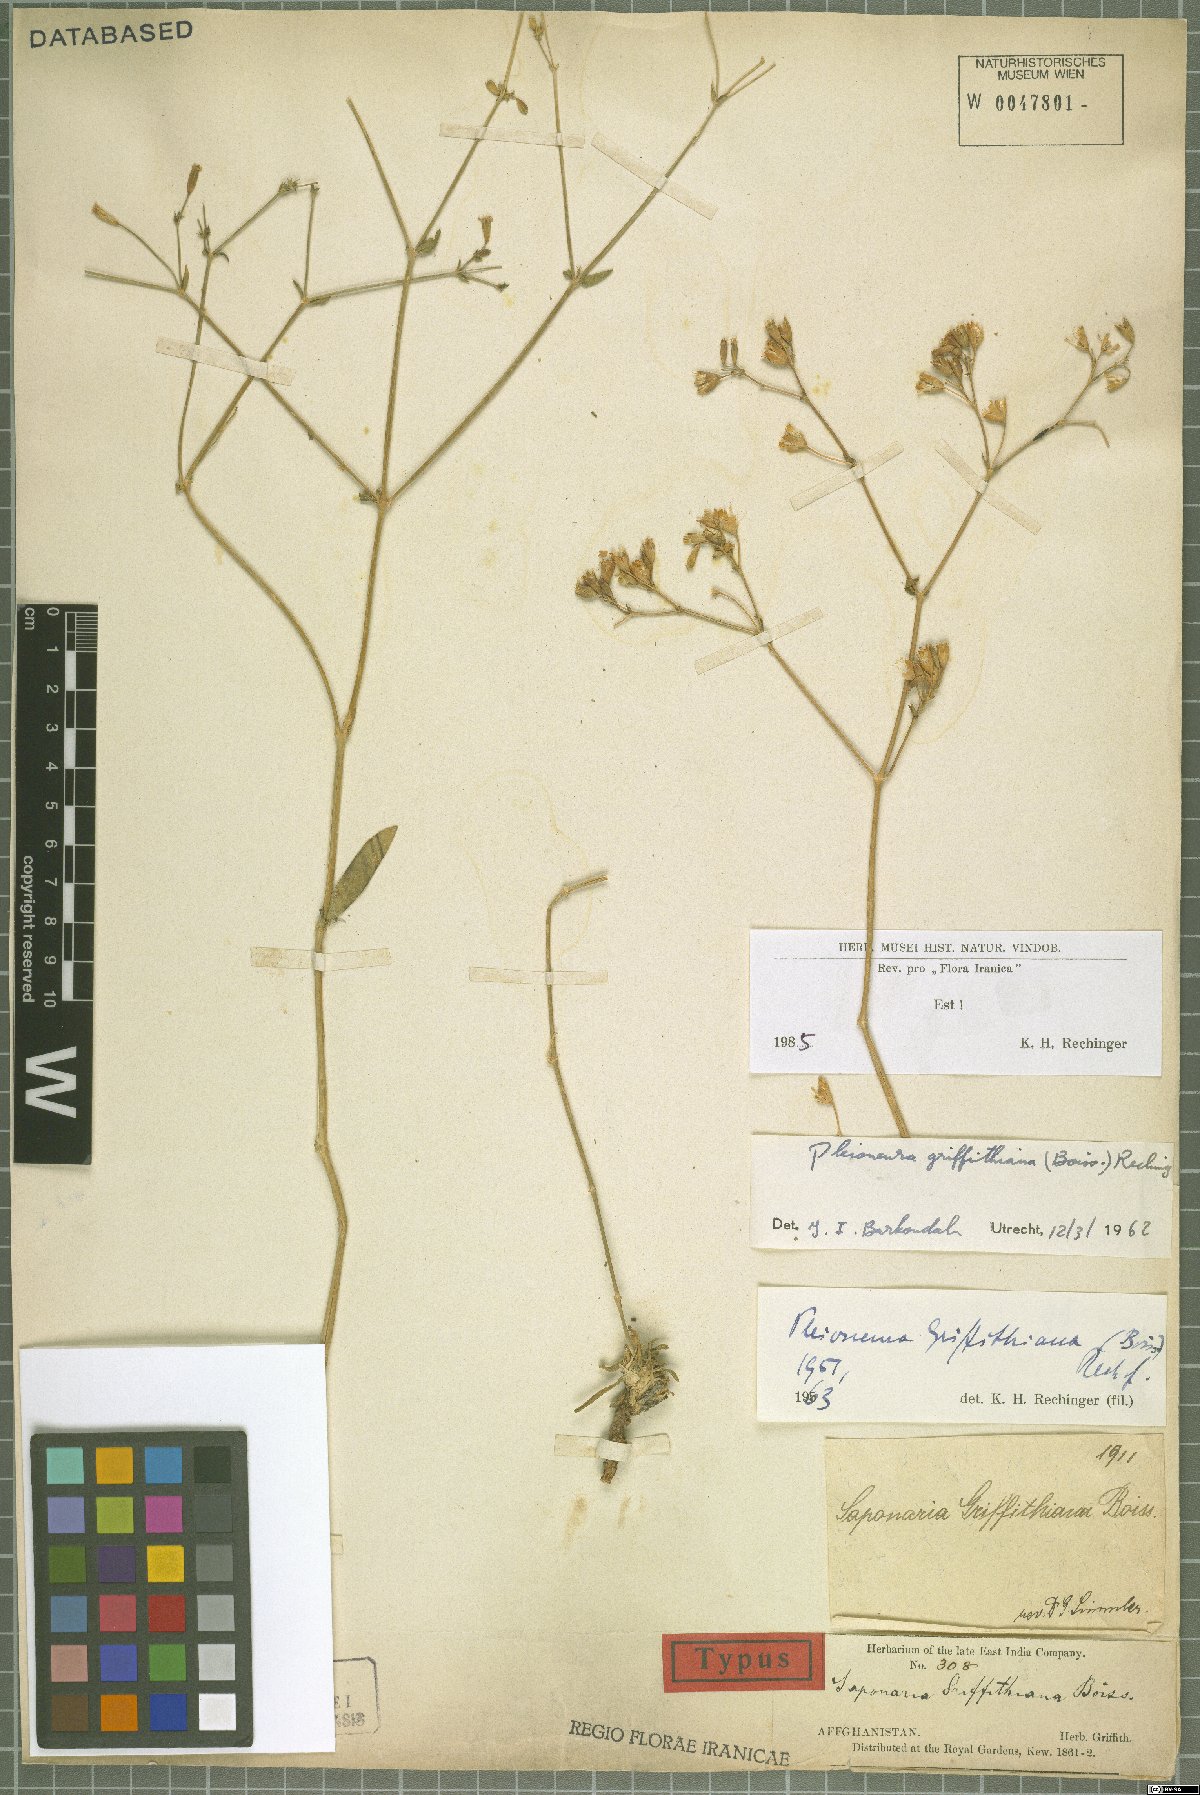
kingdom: Plantae
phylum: Tracheophyta
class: Magnoliopsida
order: Caryophyllales
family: Caryophyllaceae
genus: Saponaria
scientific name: Saponaria griffithiana
